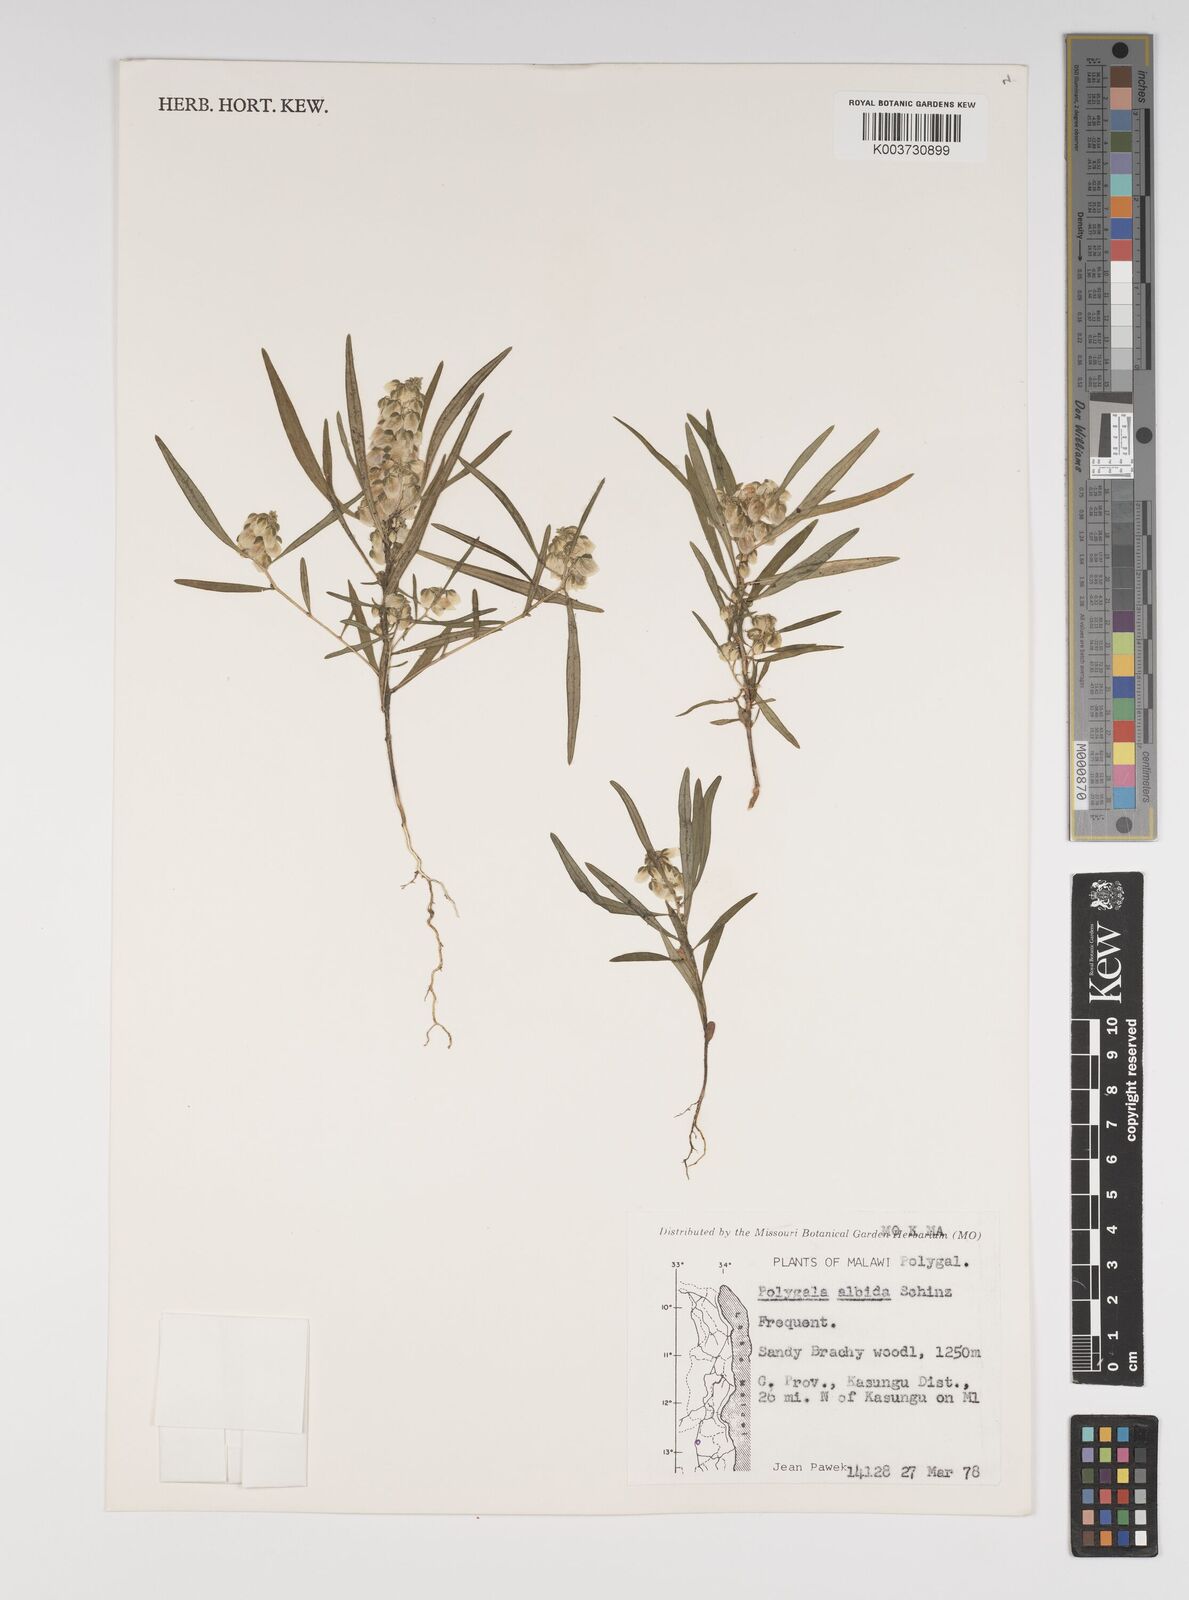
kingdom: Plantae
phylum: Tracheophyta
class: Magnoliopsida
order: Fabales
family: Polygalaceae
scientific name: Polygalaceae
